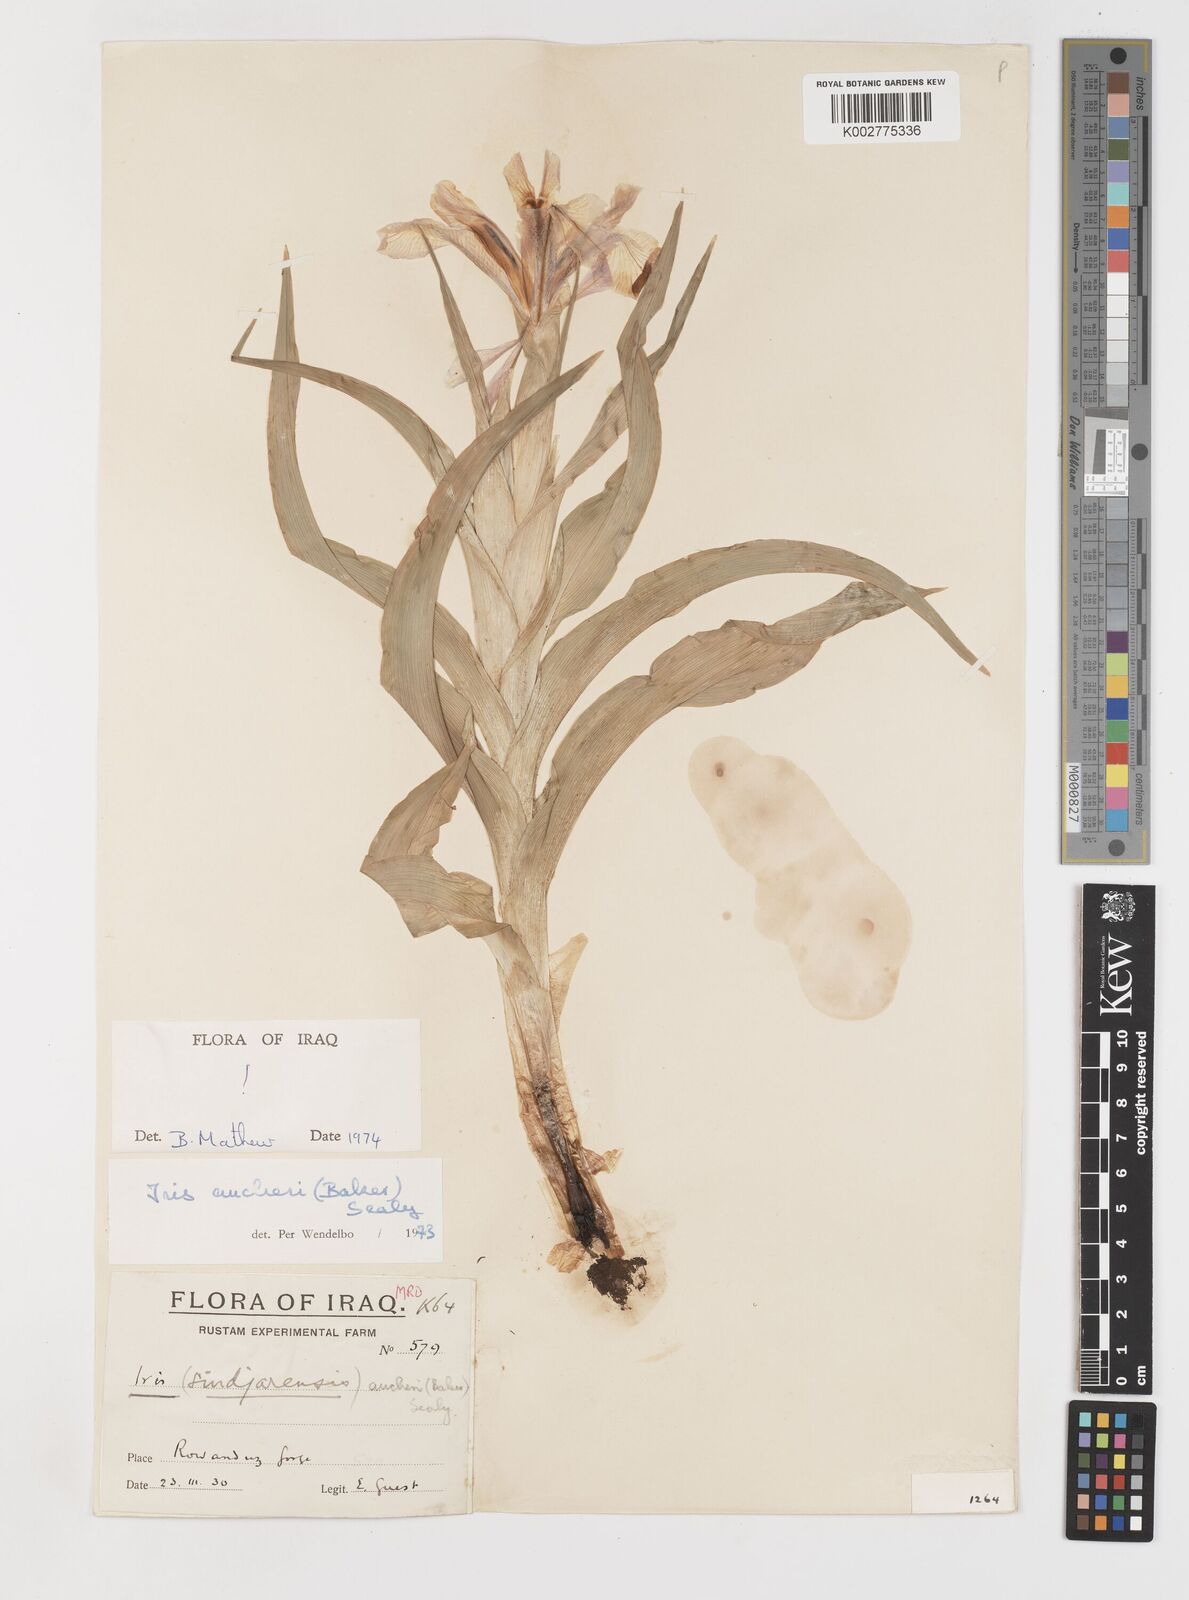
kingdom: Plantae
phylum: Tracheophyta
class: Liliopsida
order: Asparagales
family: Iridaceae
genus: Iris
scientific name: Iris aucheri
